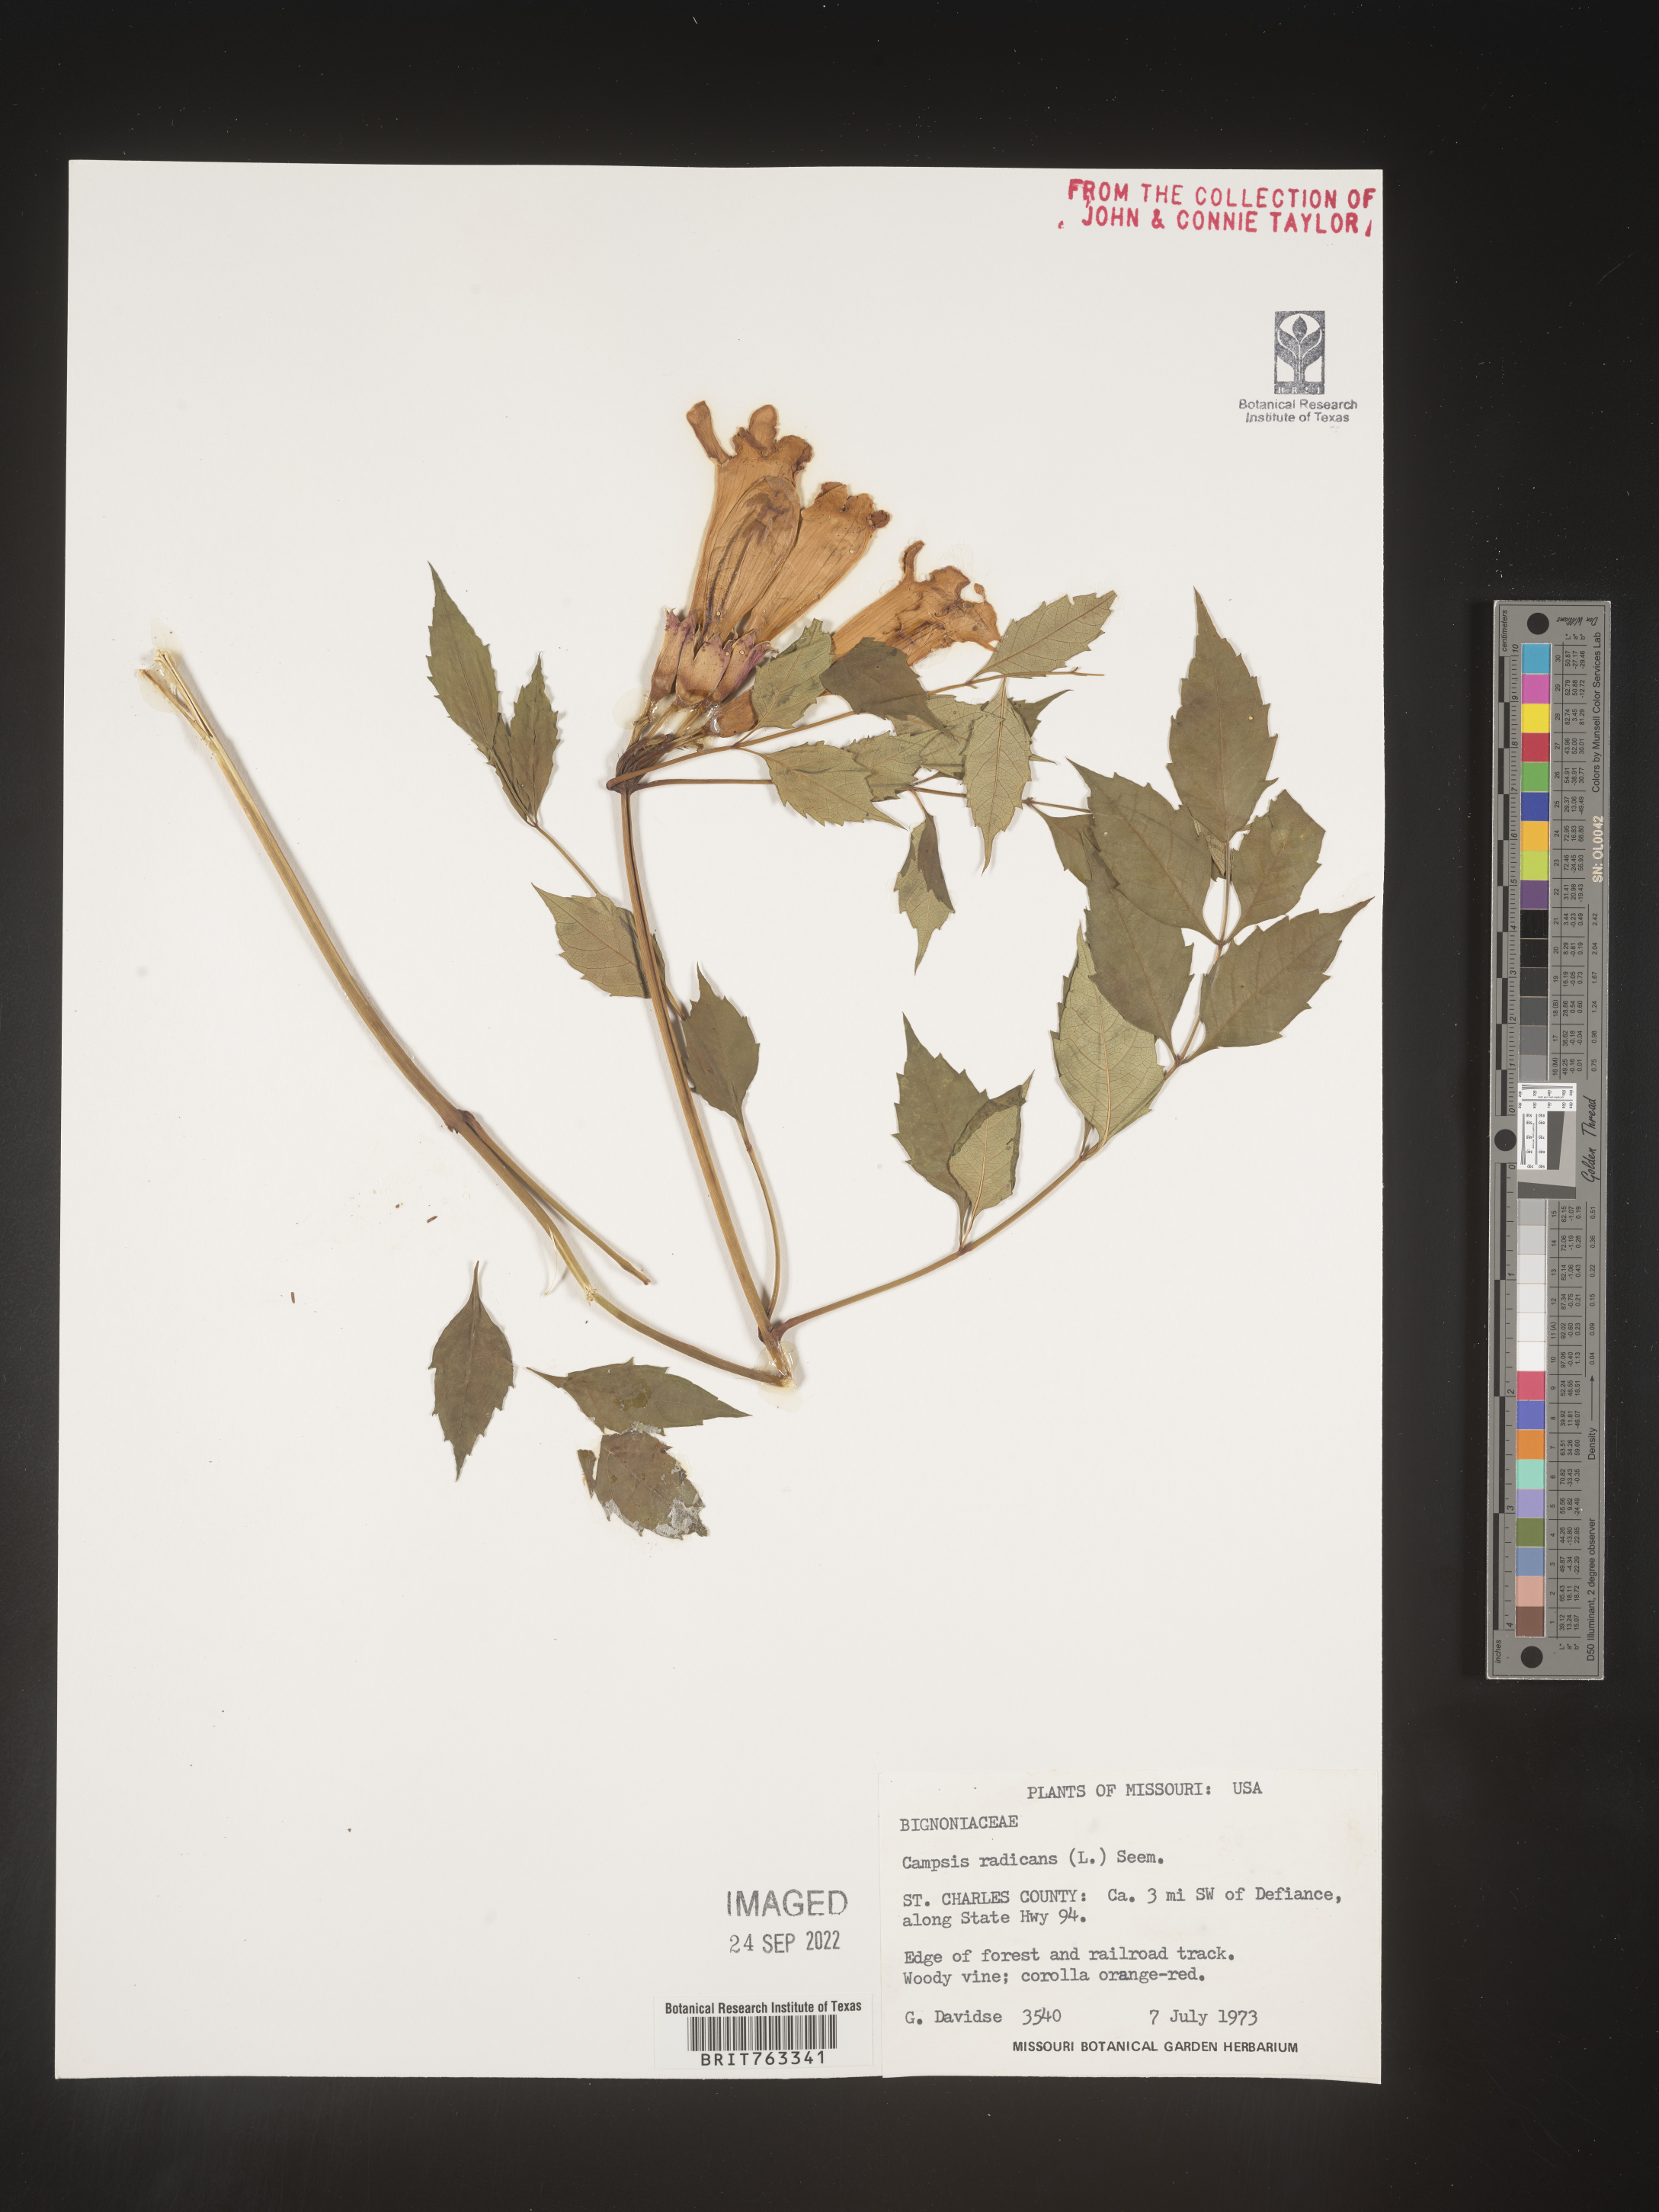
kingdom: Plantae
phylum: Tracheophyta
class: Magnoliopsida
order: Lamiales
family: Bignoniaceae
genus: Campsis
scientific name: Campsis radicans
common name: Trumpet-creeper
